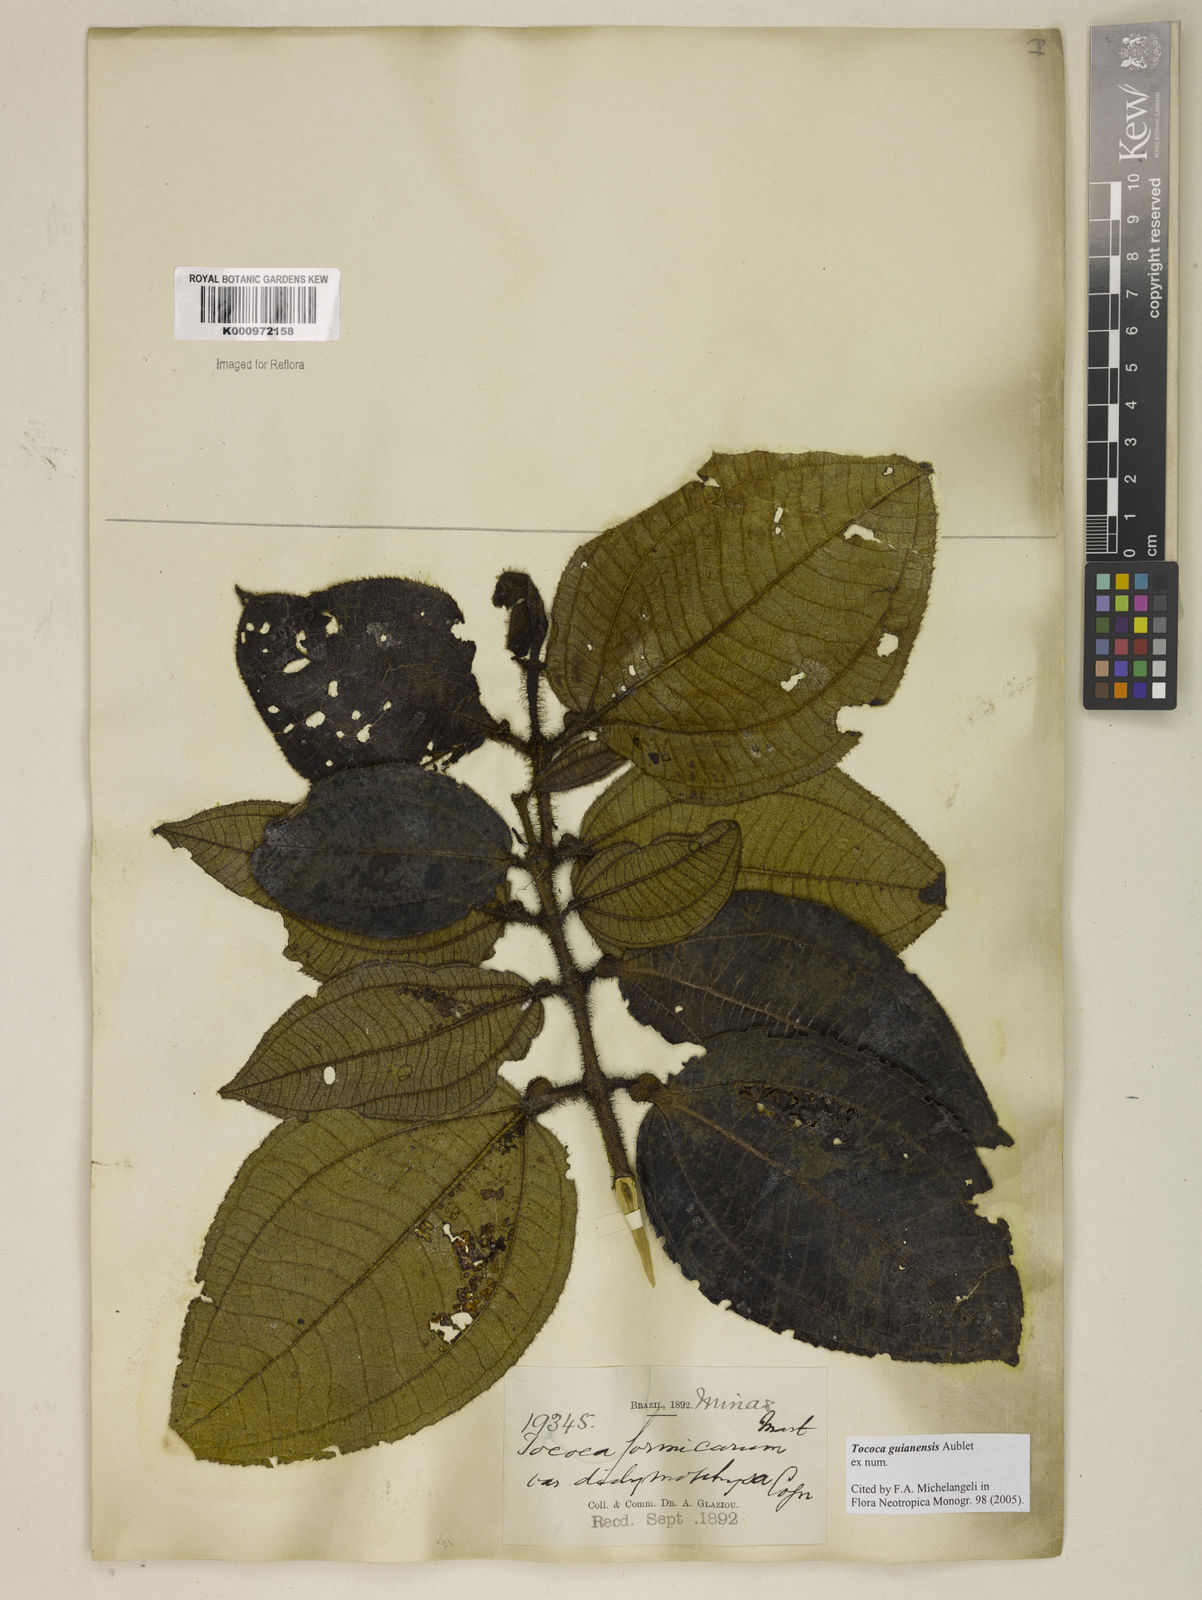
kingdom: Plantae
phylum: Tracheophyta
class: Magnoliopsida
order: Myrtales
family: Melastomataceae
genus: Miconia
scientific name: Miconia tococa
